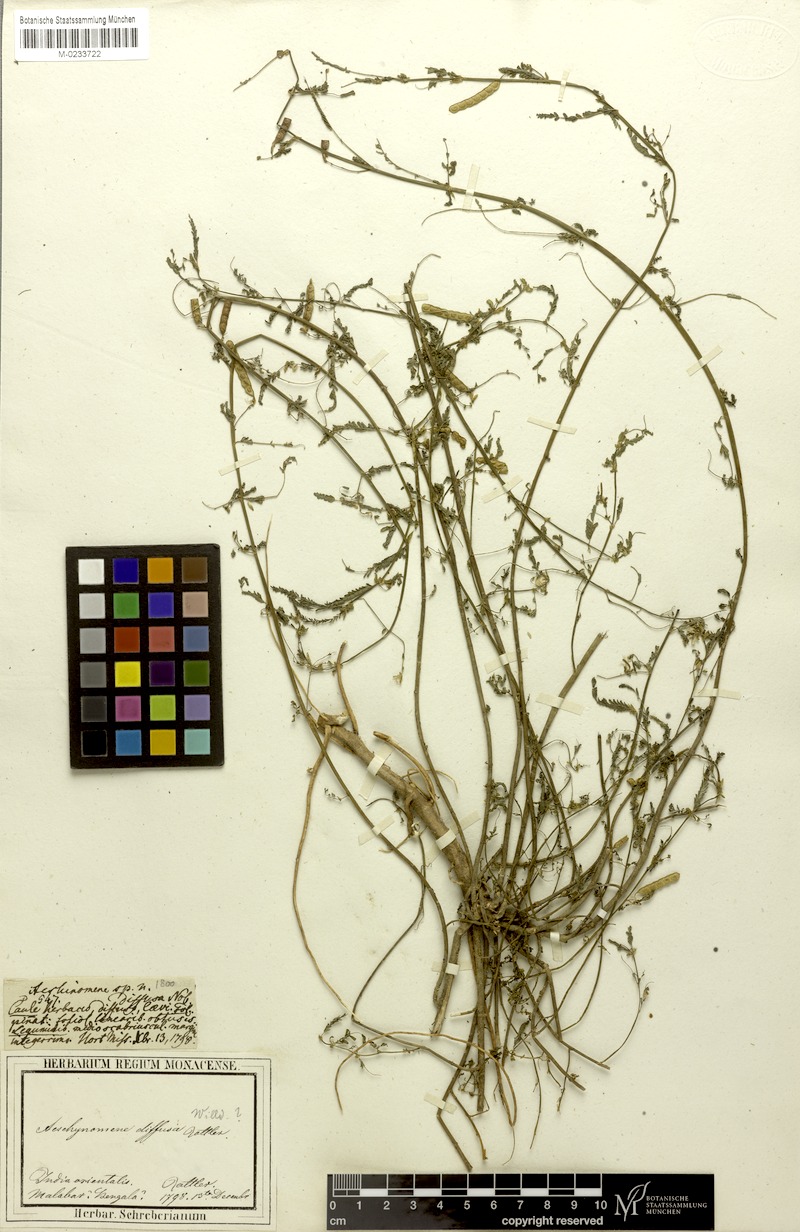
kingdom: Plantae
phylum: Tracheophyta
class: Magnoliopsida
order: Fabales
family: Fabaceae
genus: Aeschynomene
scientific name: Aeschynomene indica
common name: Indian jointvetch
